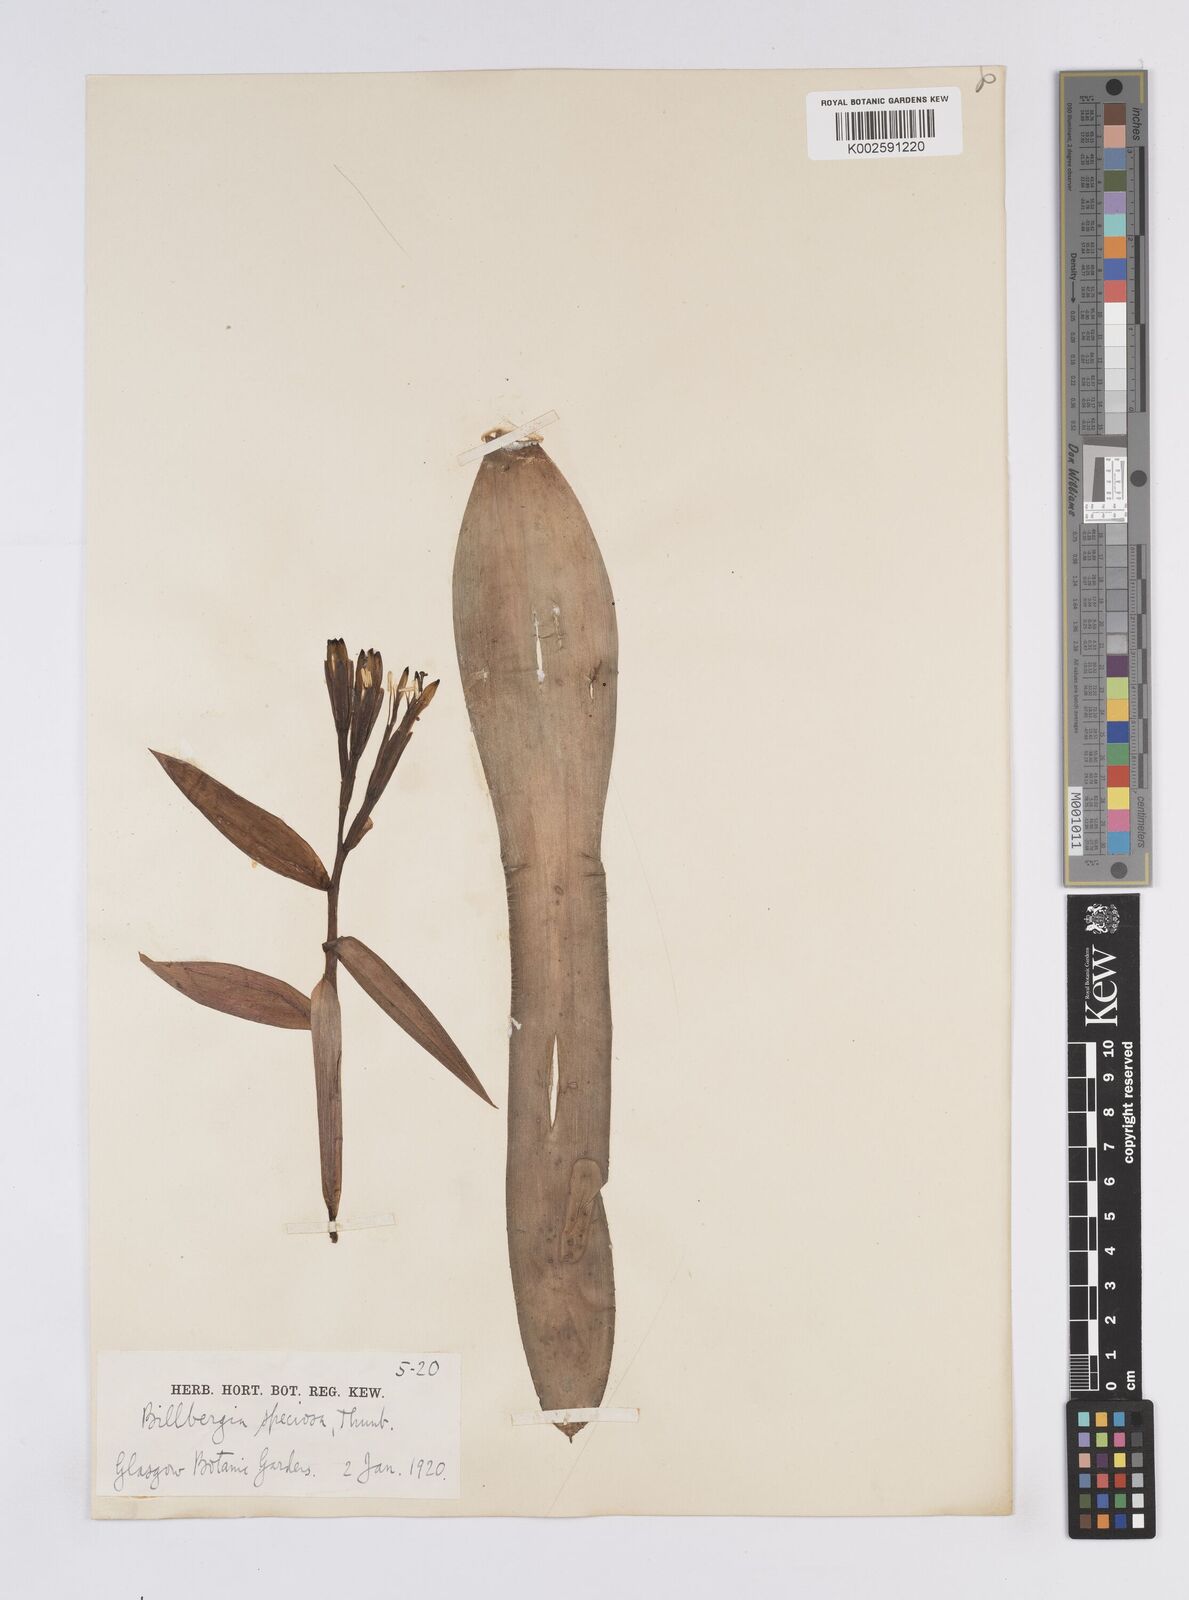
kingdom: Plantae
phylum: Tracheophyta
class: Liliopsida
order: Poales
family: Bromeliaceae
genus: Billbergia
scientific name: Billbergia amoena
